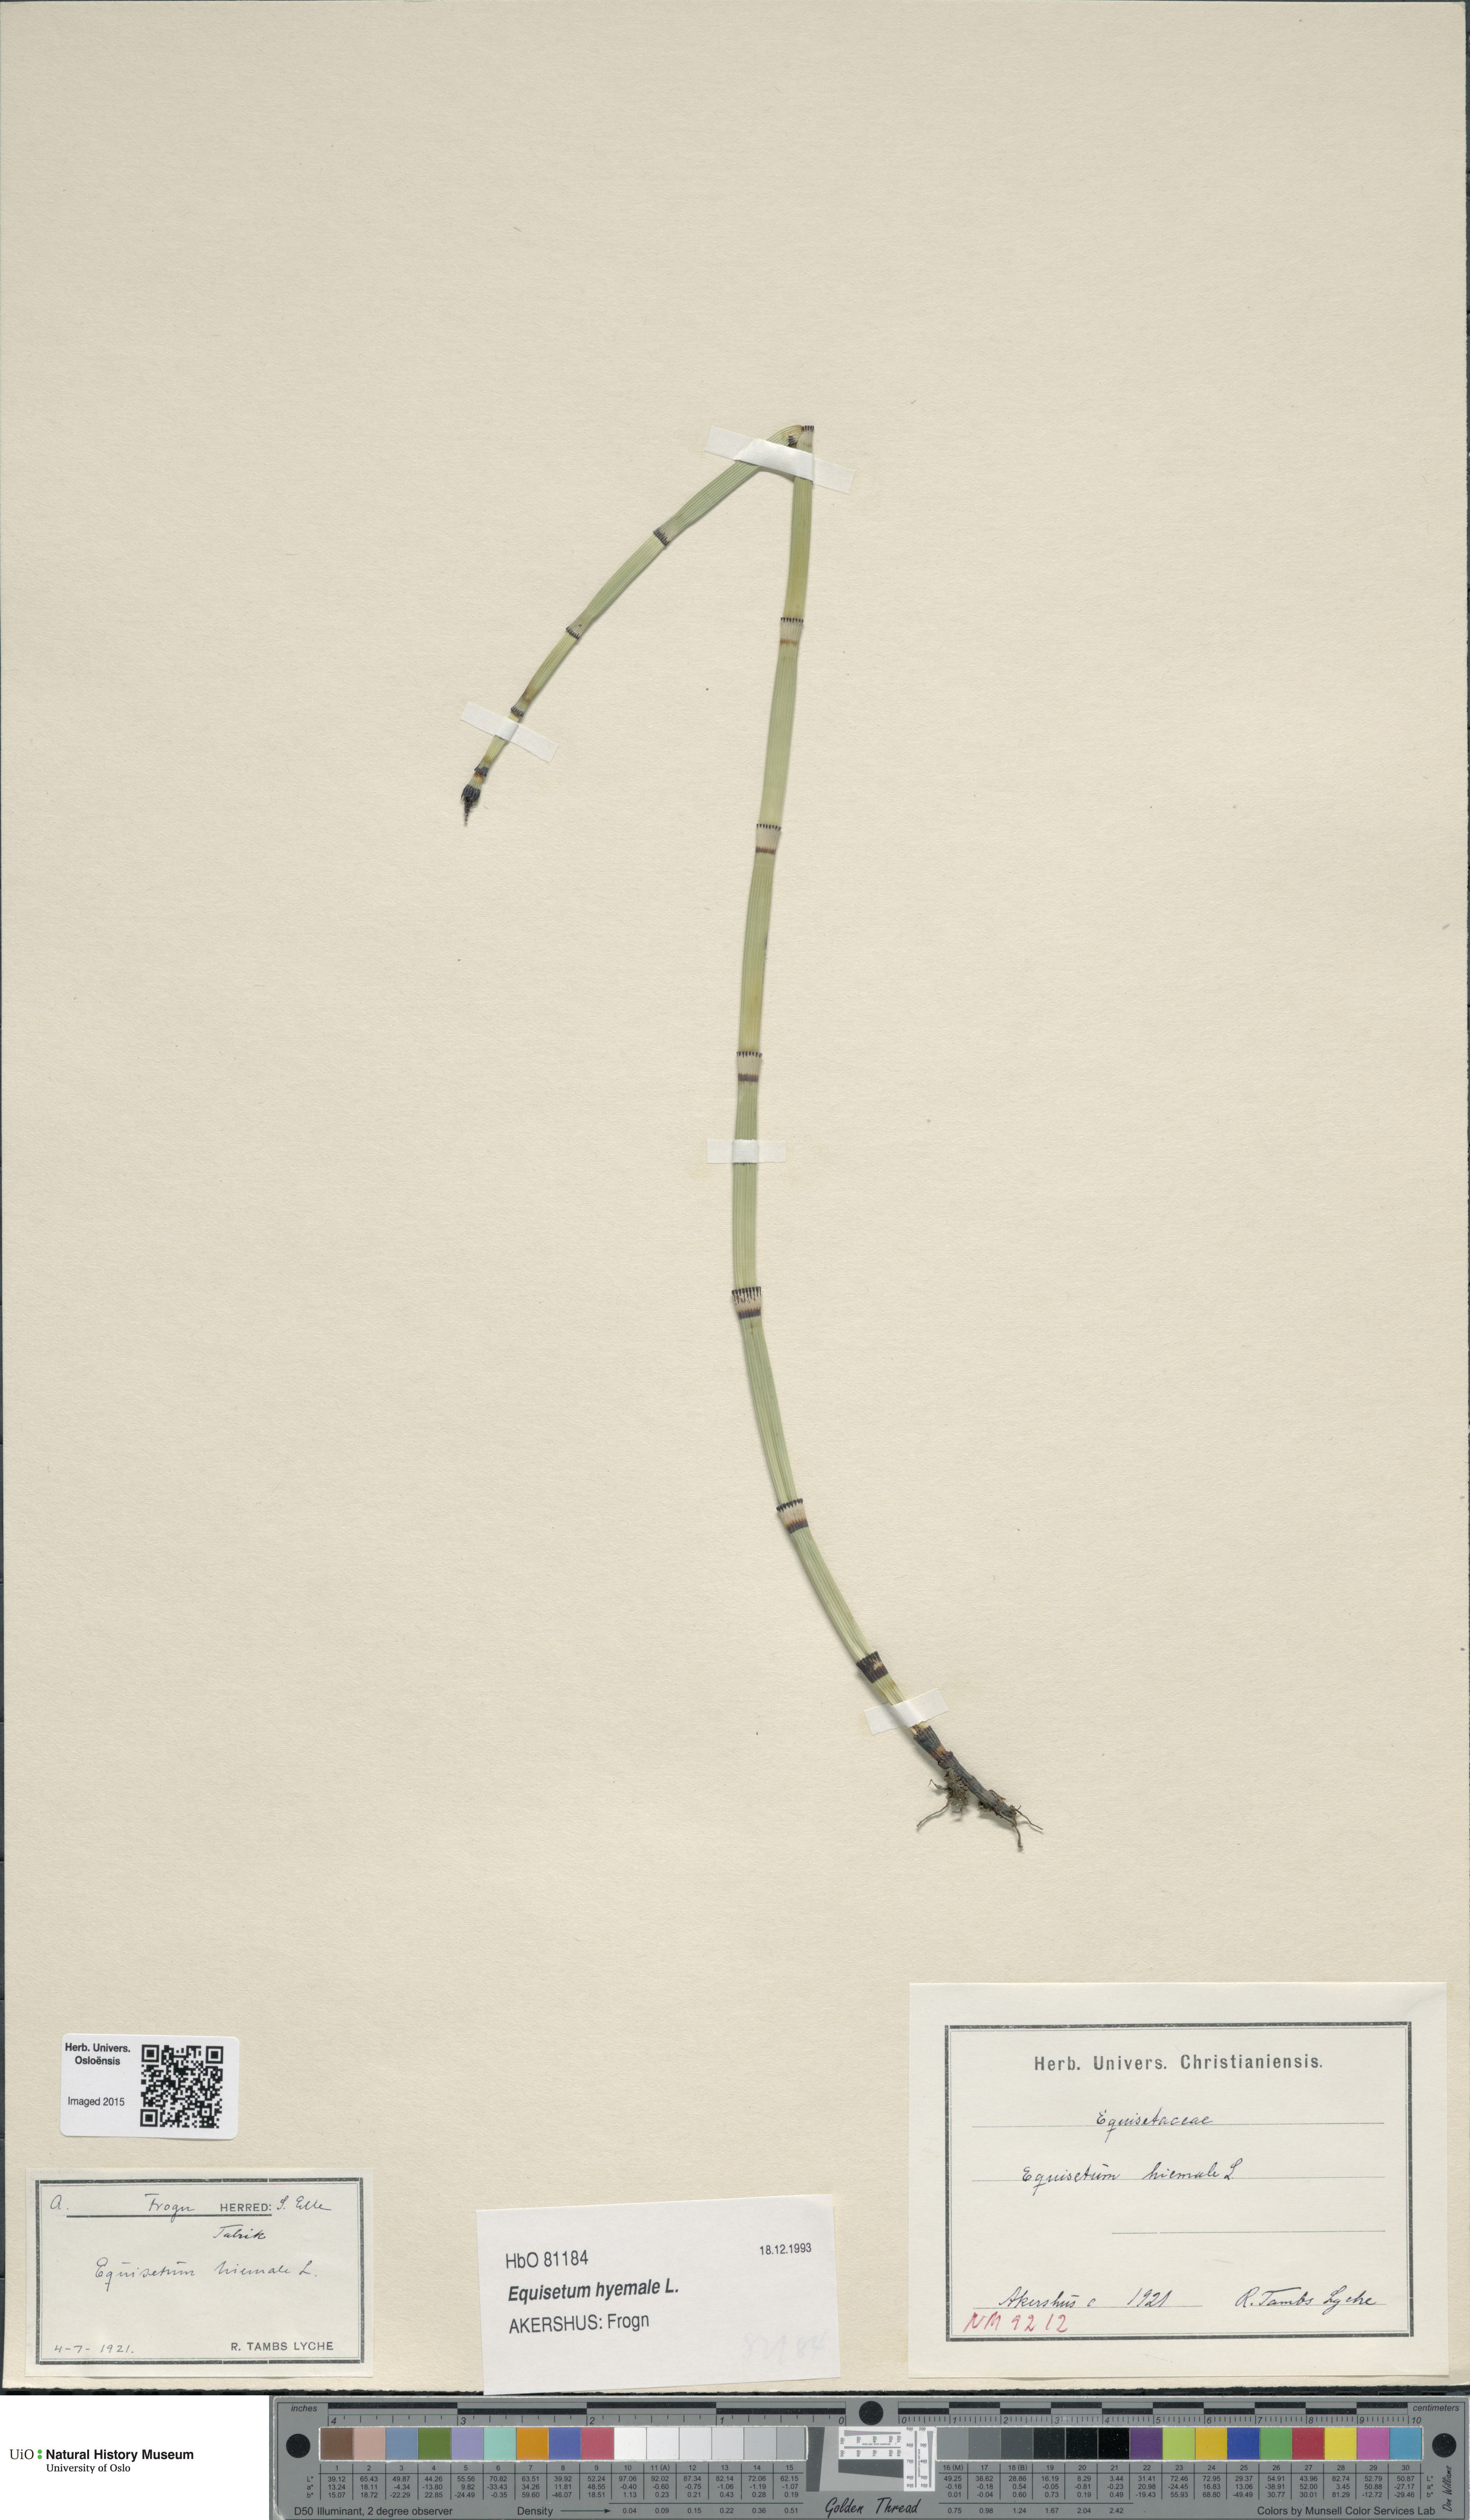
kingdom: Plantae
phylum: Tracheophyta
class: Polypodiopsida
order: Equisetales
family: Equisetaceae
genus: Equisetum
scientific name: Equisetum hyemale
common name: Rough horsetail
